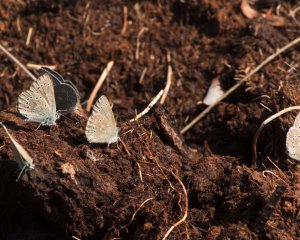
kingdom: Animalia
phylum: Arthropoda
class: Insecta
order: Lepidoptera
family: Lycaenidae
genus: Glaucopsyche
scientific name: Glaucopsyche lygdamus
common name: Silvery Blue
